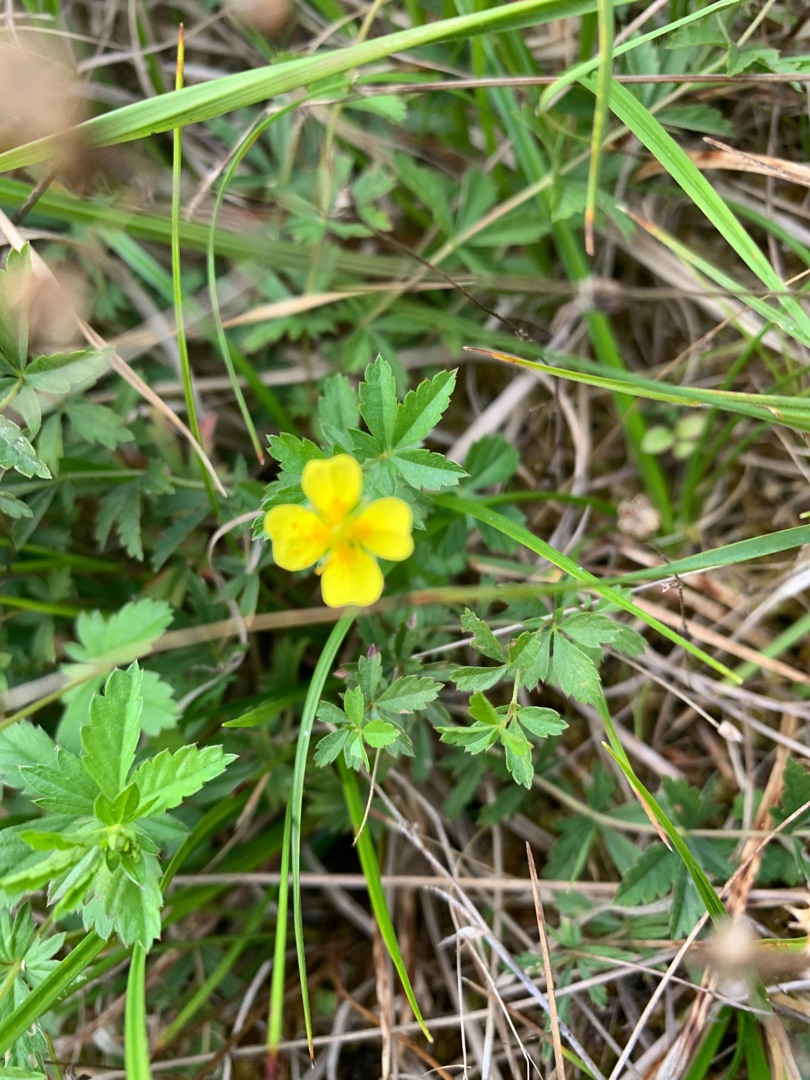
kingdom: Plantae
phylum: Tracheophyta
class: Magnoliopsida
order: Rosales
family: Rosaceae
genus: Potentilla
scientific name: Potentilla erecta
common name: Tormentil
